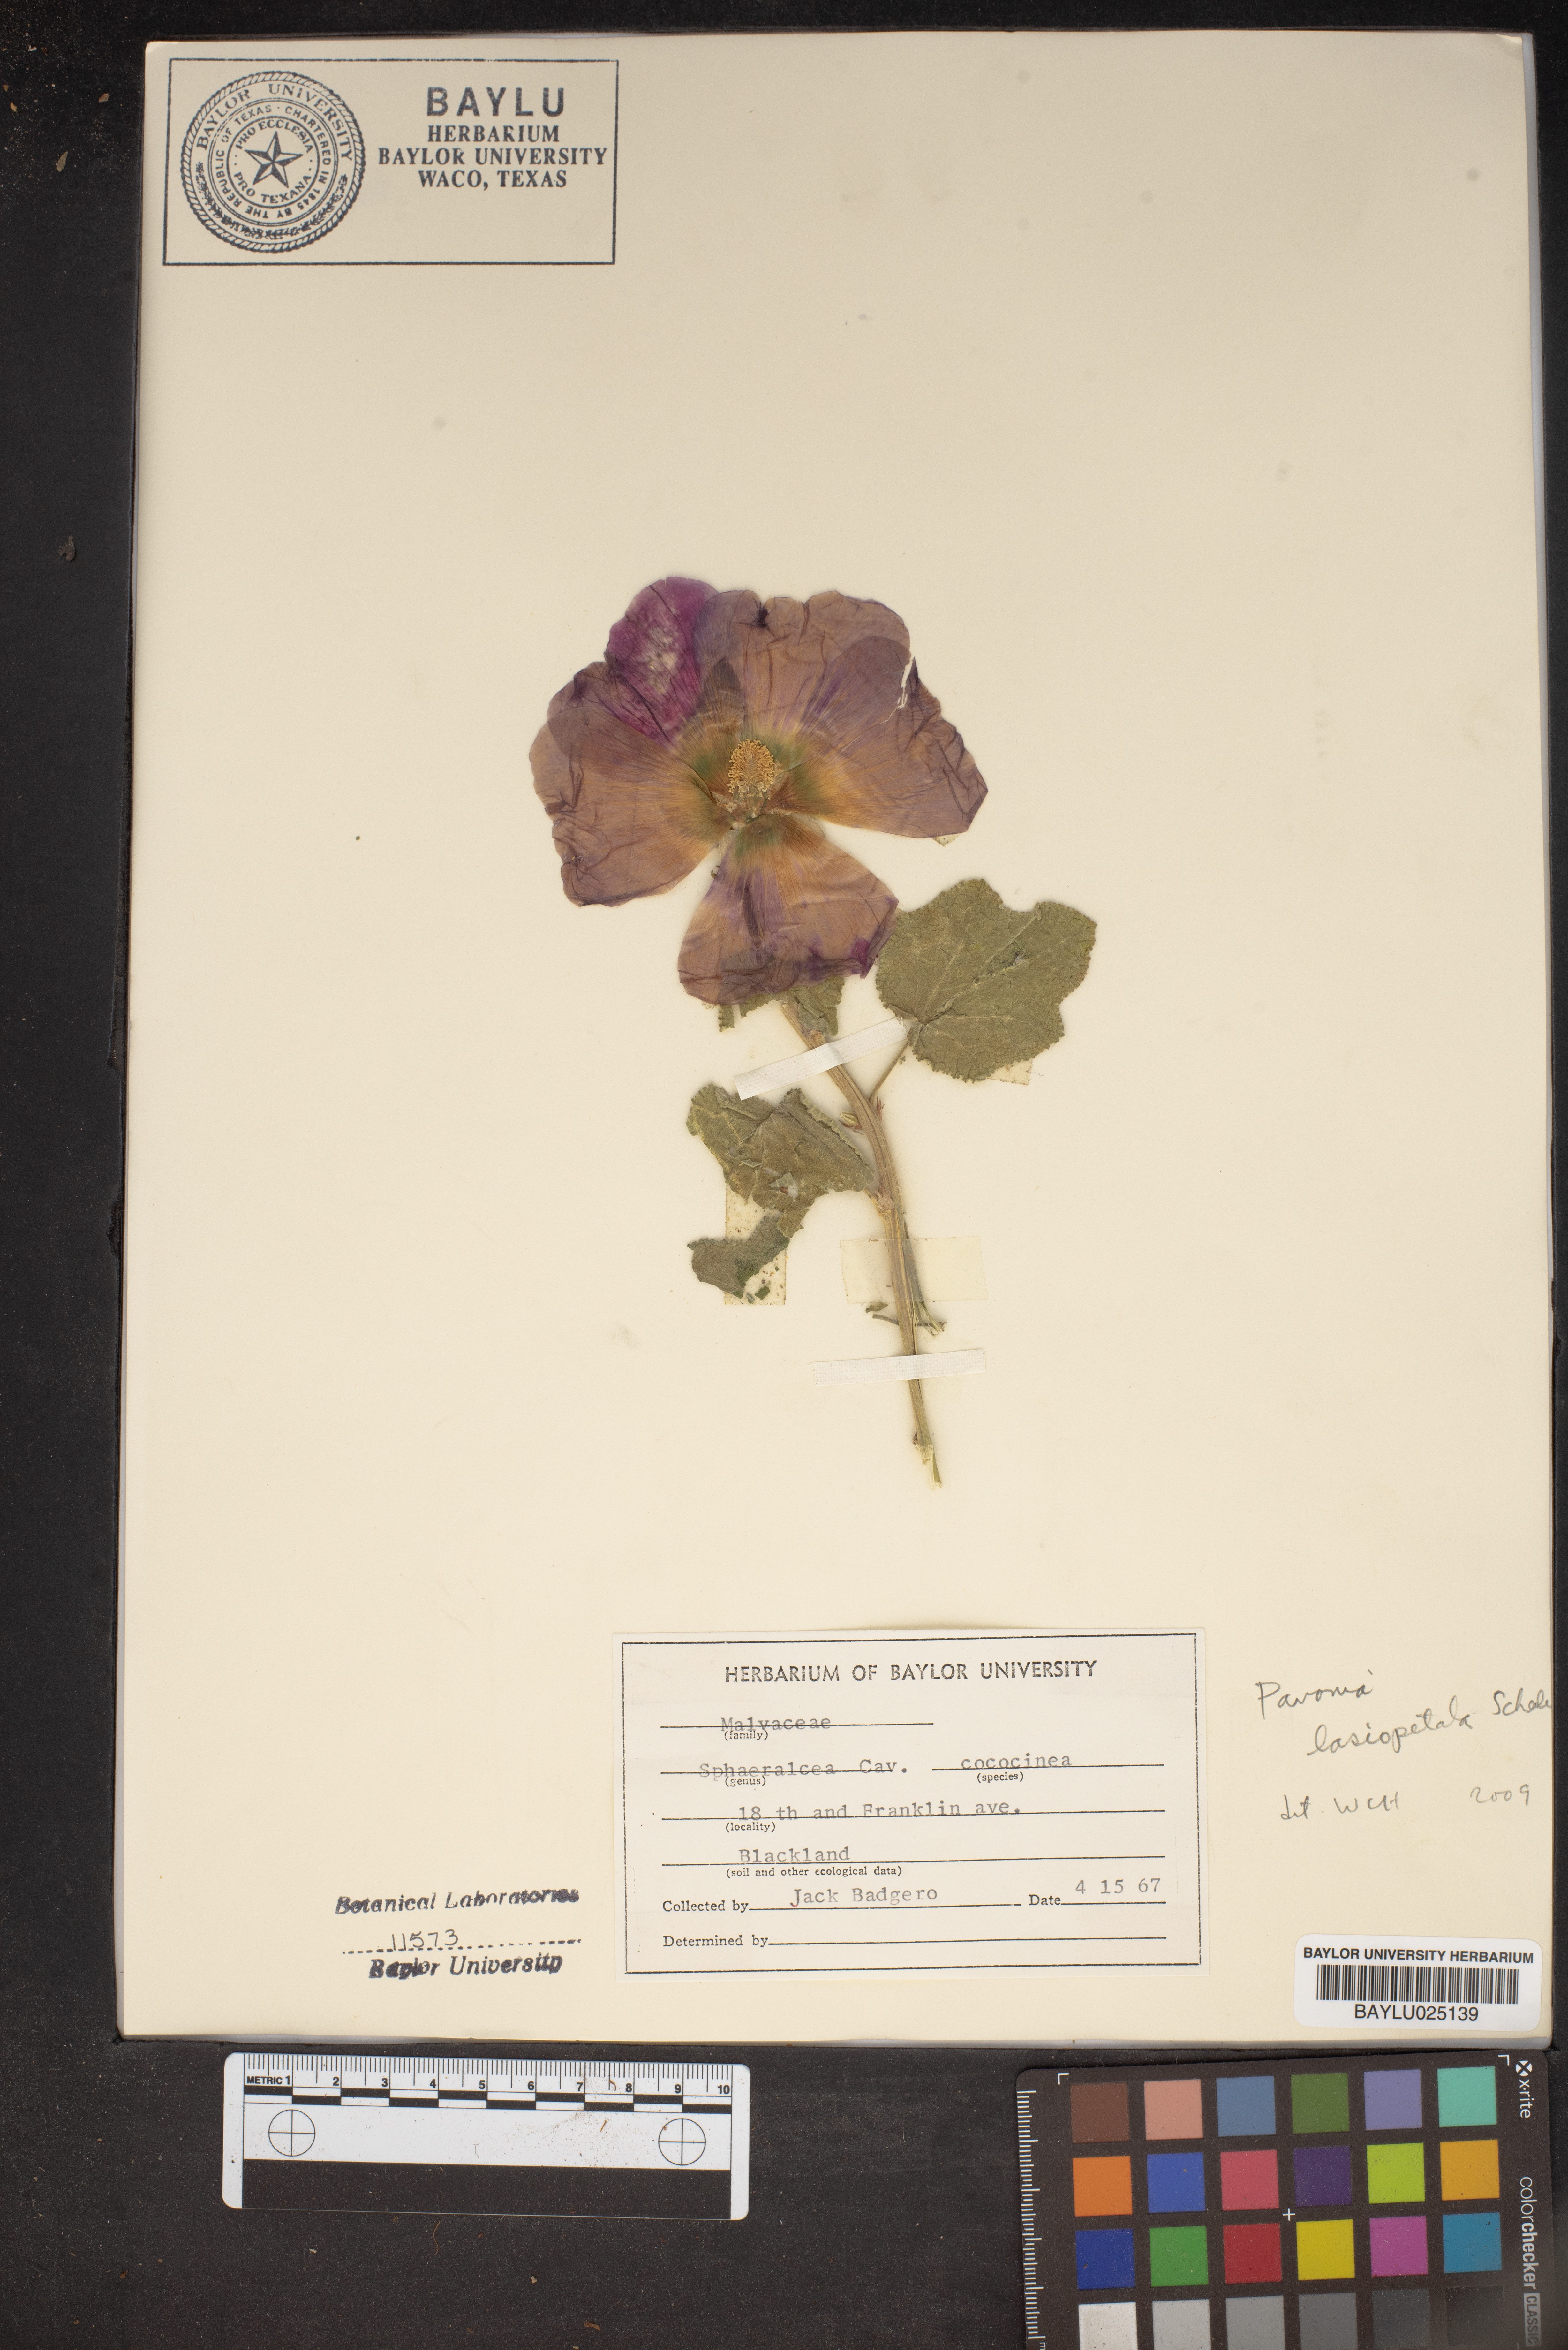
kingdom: Plantae
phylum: Tracheophyta
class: Magnoliopsida
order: Malvales
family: Malvaceae
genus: Pavonia
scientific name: Pavonia lasiopetala
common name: Texas swamp-mallow
